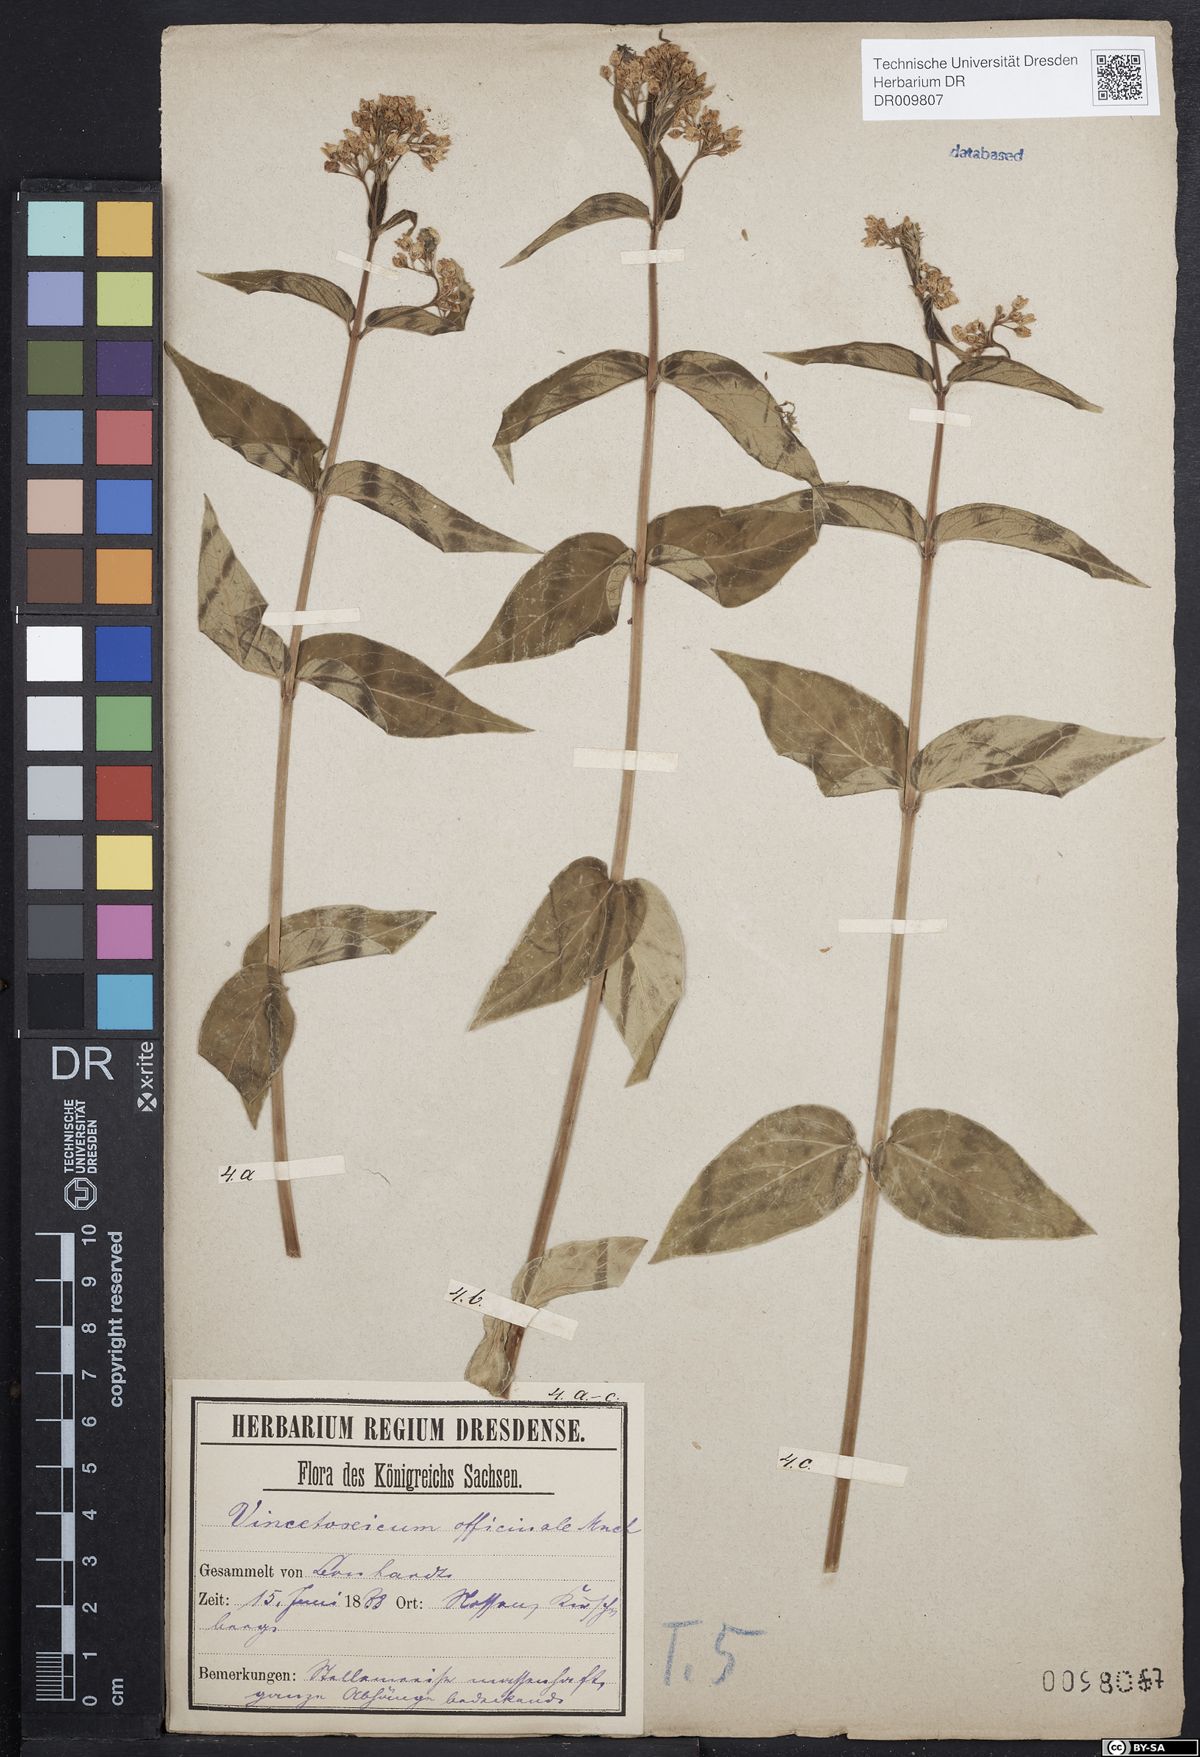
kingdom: Plantae
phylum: Tracheophyta
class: Magnoliopsida
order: Gentianales
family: Apocynaceae
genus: Vincetoxicum
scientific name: Vincetoxicum hirundinaria
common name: White swallowwort
